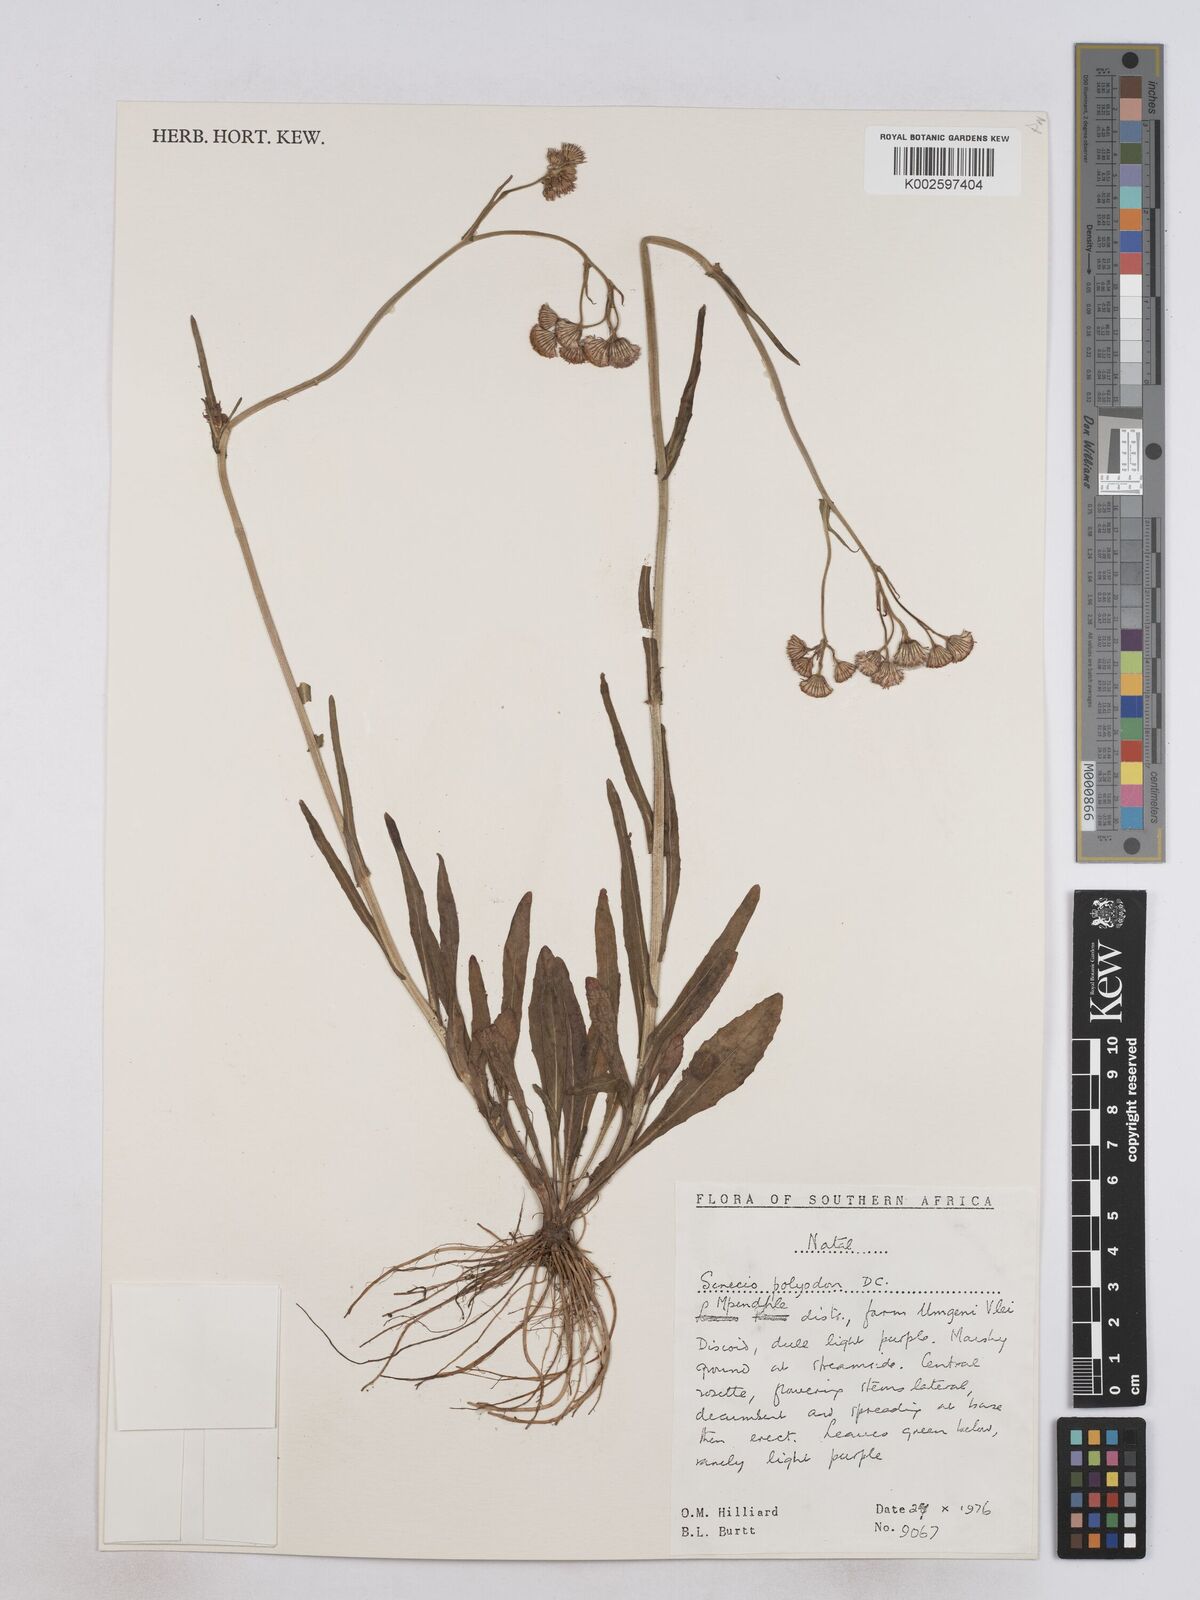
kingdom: Plantae
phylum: Tracheophyta
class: Magnoliopsida
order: Asterales
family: Asteraceae
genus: Senecio
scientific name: Senecio polyodon
